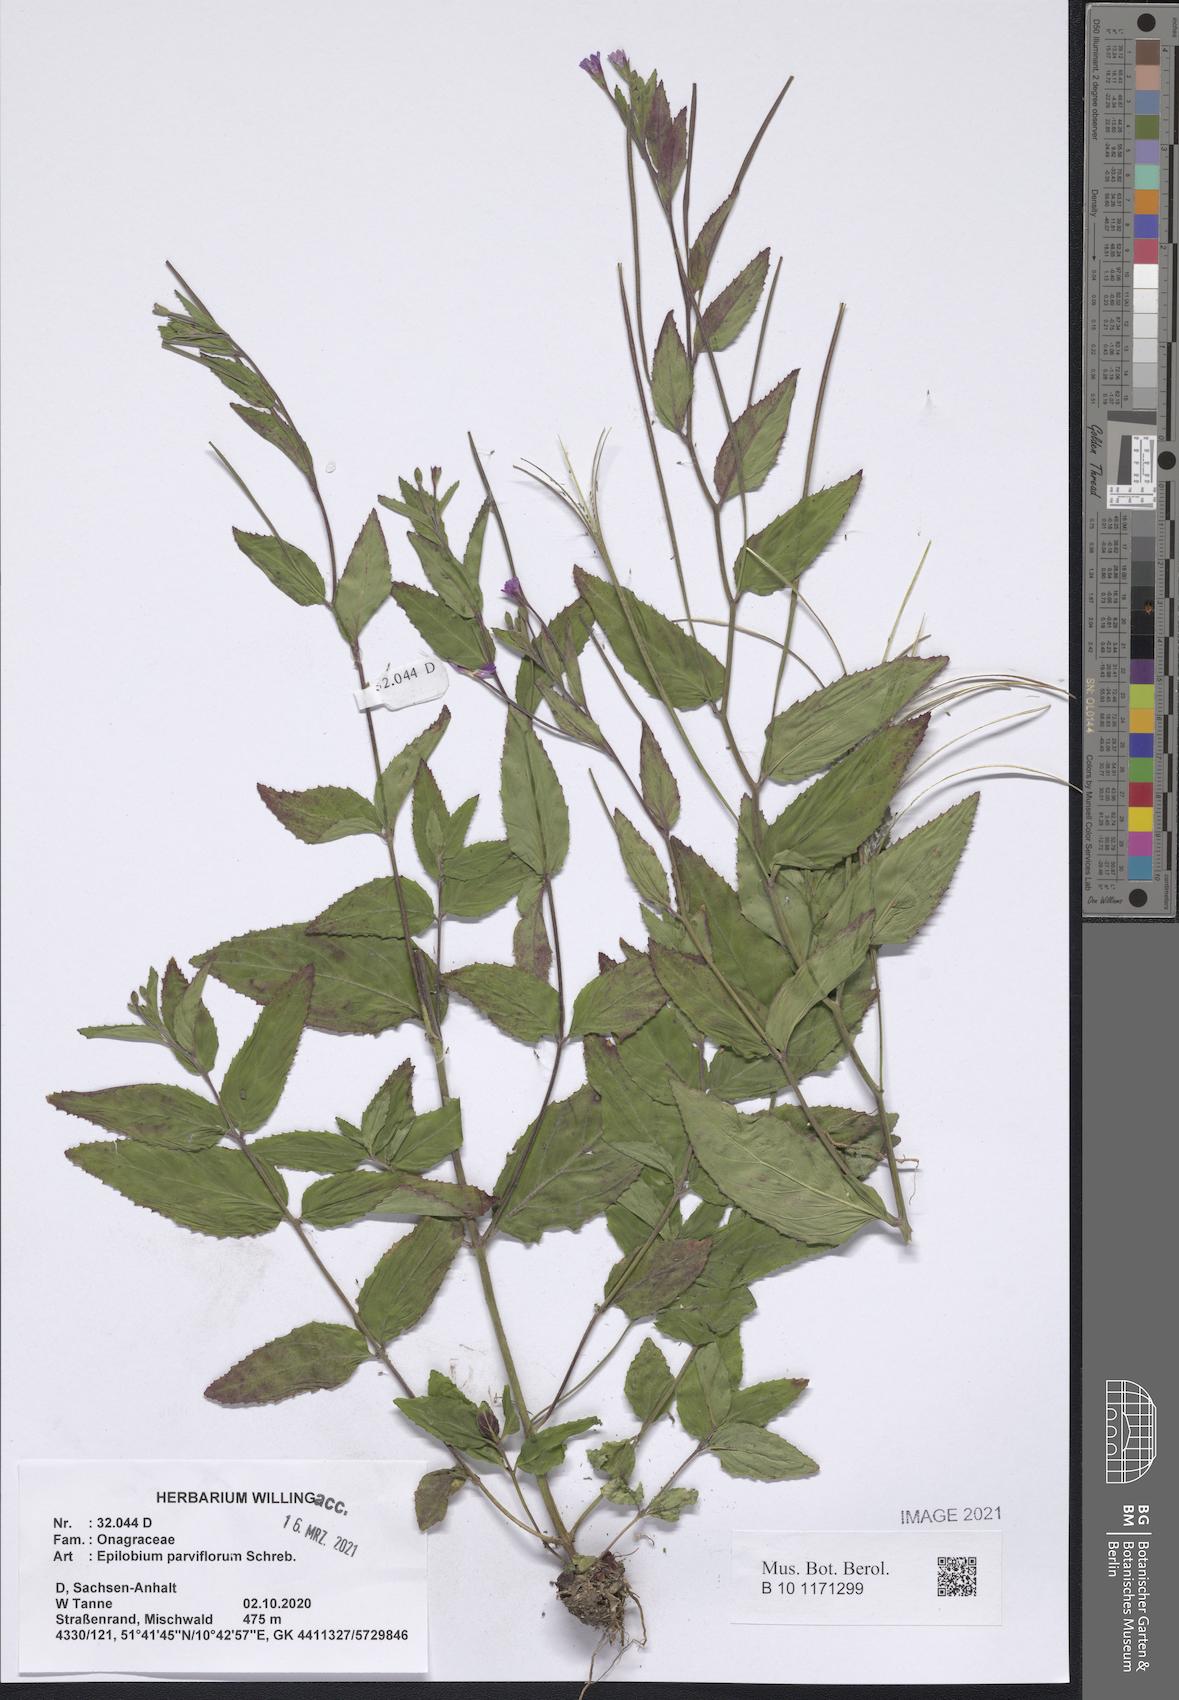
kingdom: Plantae
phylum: Tracheophyta
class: Magnoliopsida
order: Myrtales
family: Onagraceae
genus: Epilobium
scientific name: Epilobium parviflorum
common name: Hoary willowherb
